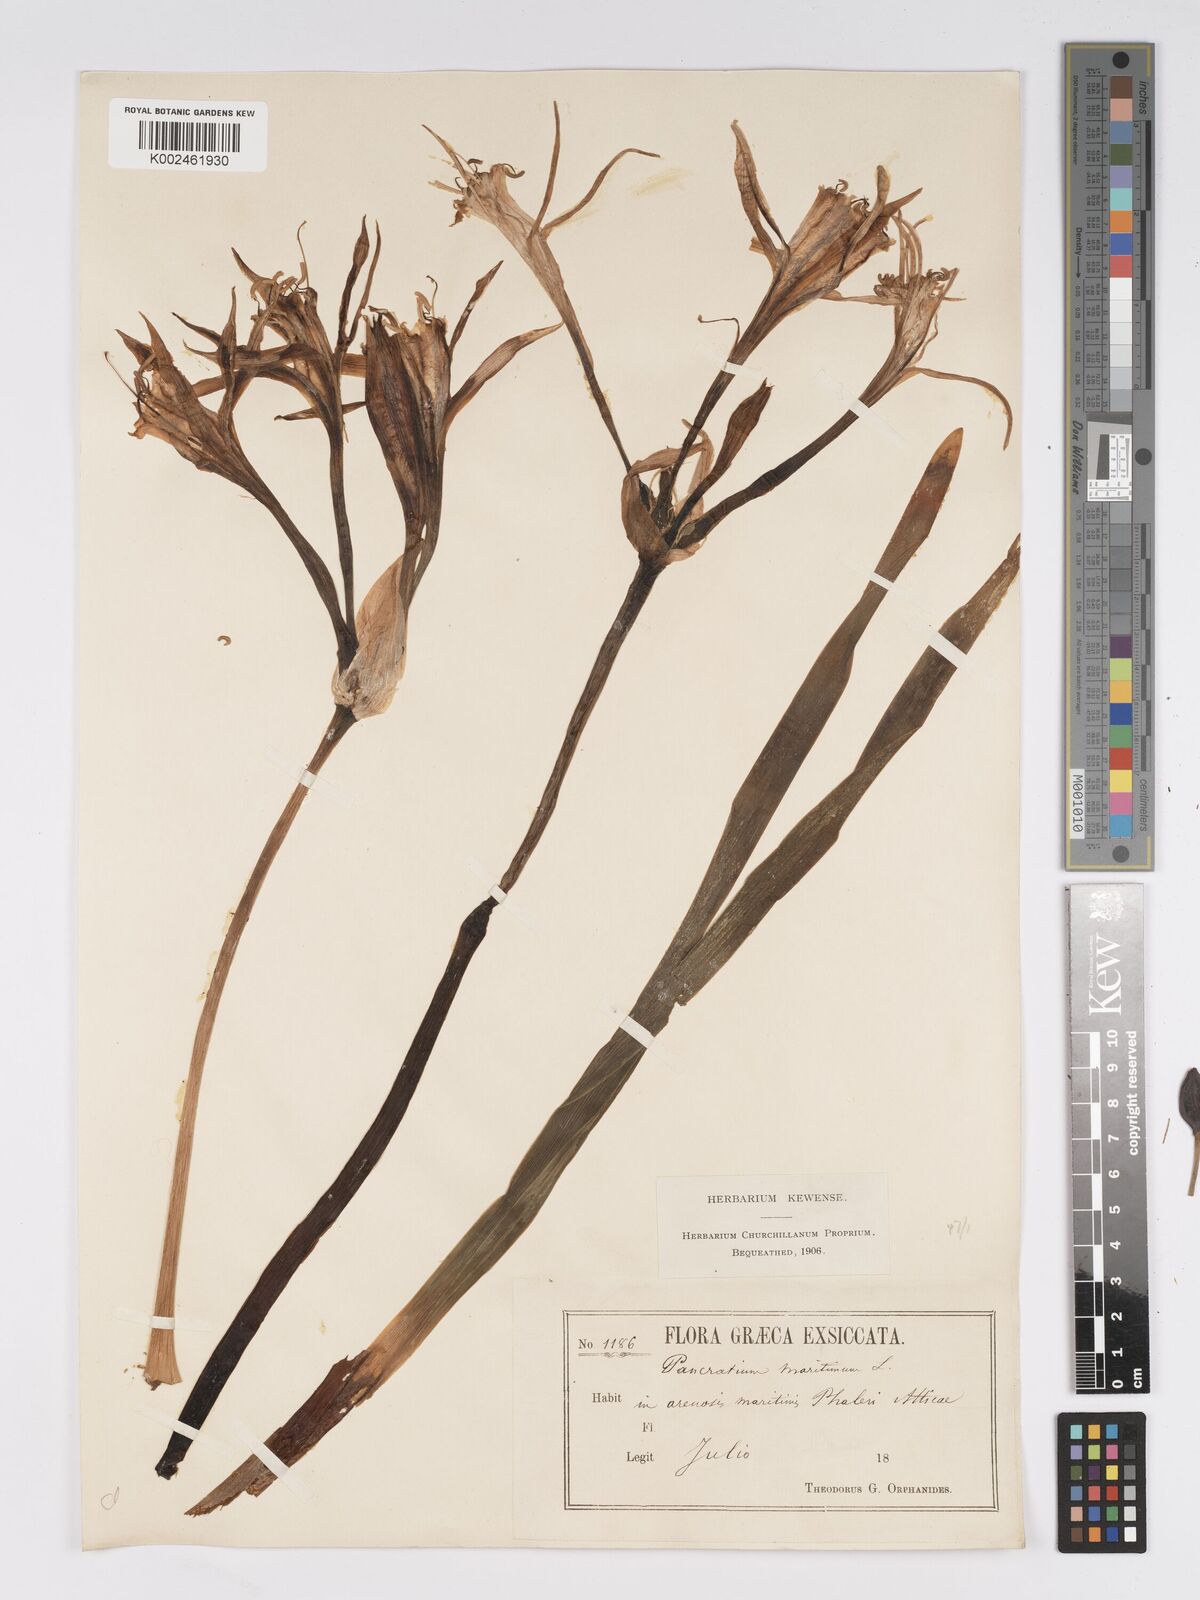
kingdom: Plantae
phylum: Tracheophyta
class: Liliopsida
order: Asparagales
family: Amaryllidaceae
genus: Pancratium
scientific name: Pancratium maritimum
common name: Sea-daffodil
